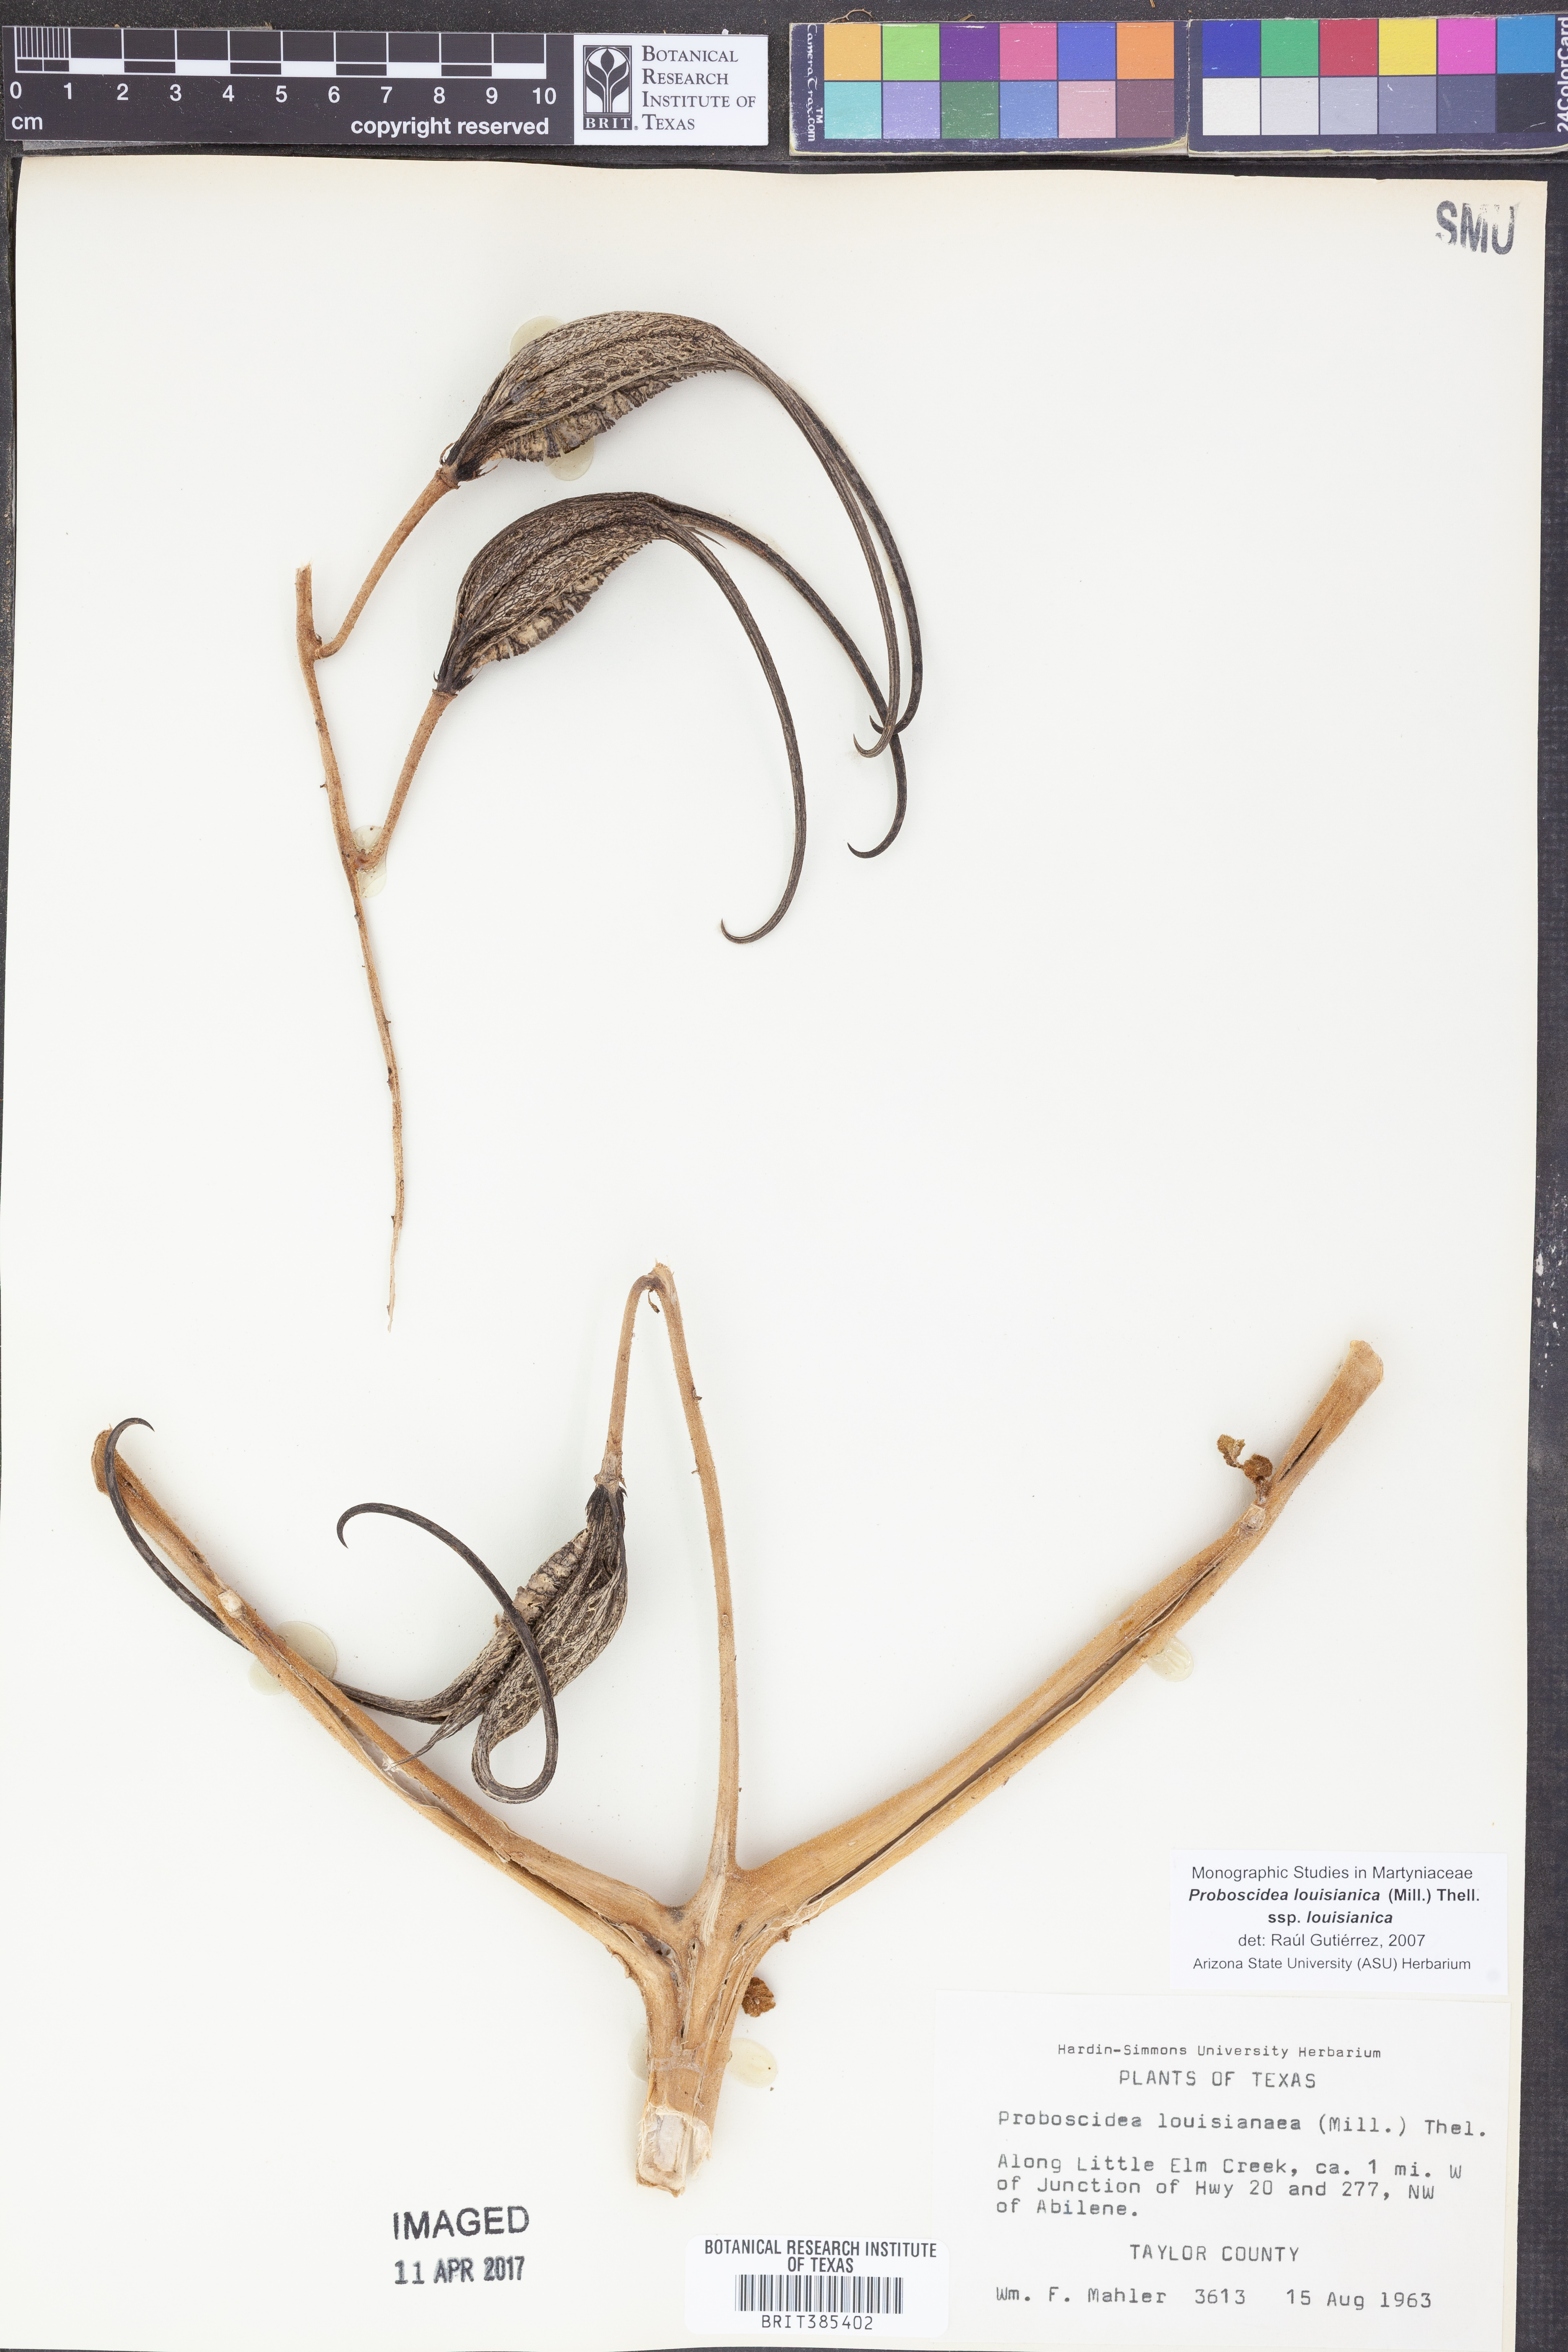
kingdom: Plantae
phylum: Tracheophyta
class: Magnoliopsida
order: Lamiales
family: Martyniaceae
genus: Proboscidea
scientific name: Proboscidea louisianica
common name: Elephant tusks
